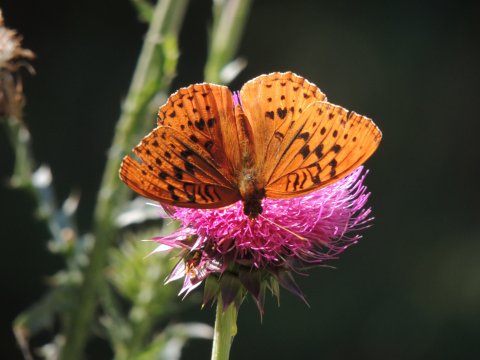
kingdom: Animalia
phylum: Arthropoda
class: Insecta
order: Lepidoptera
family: Nymphalidae
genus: Speyeria
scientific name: Speyeria cybele
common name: Great Spangled Fritillary
